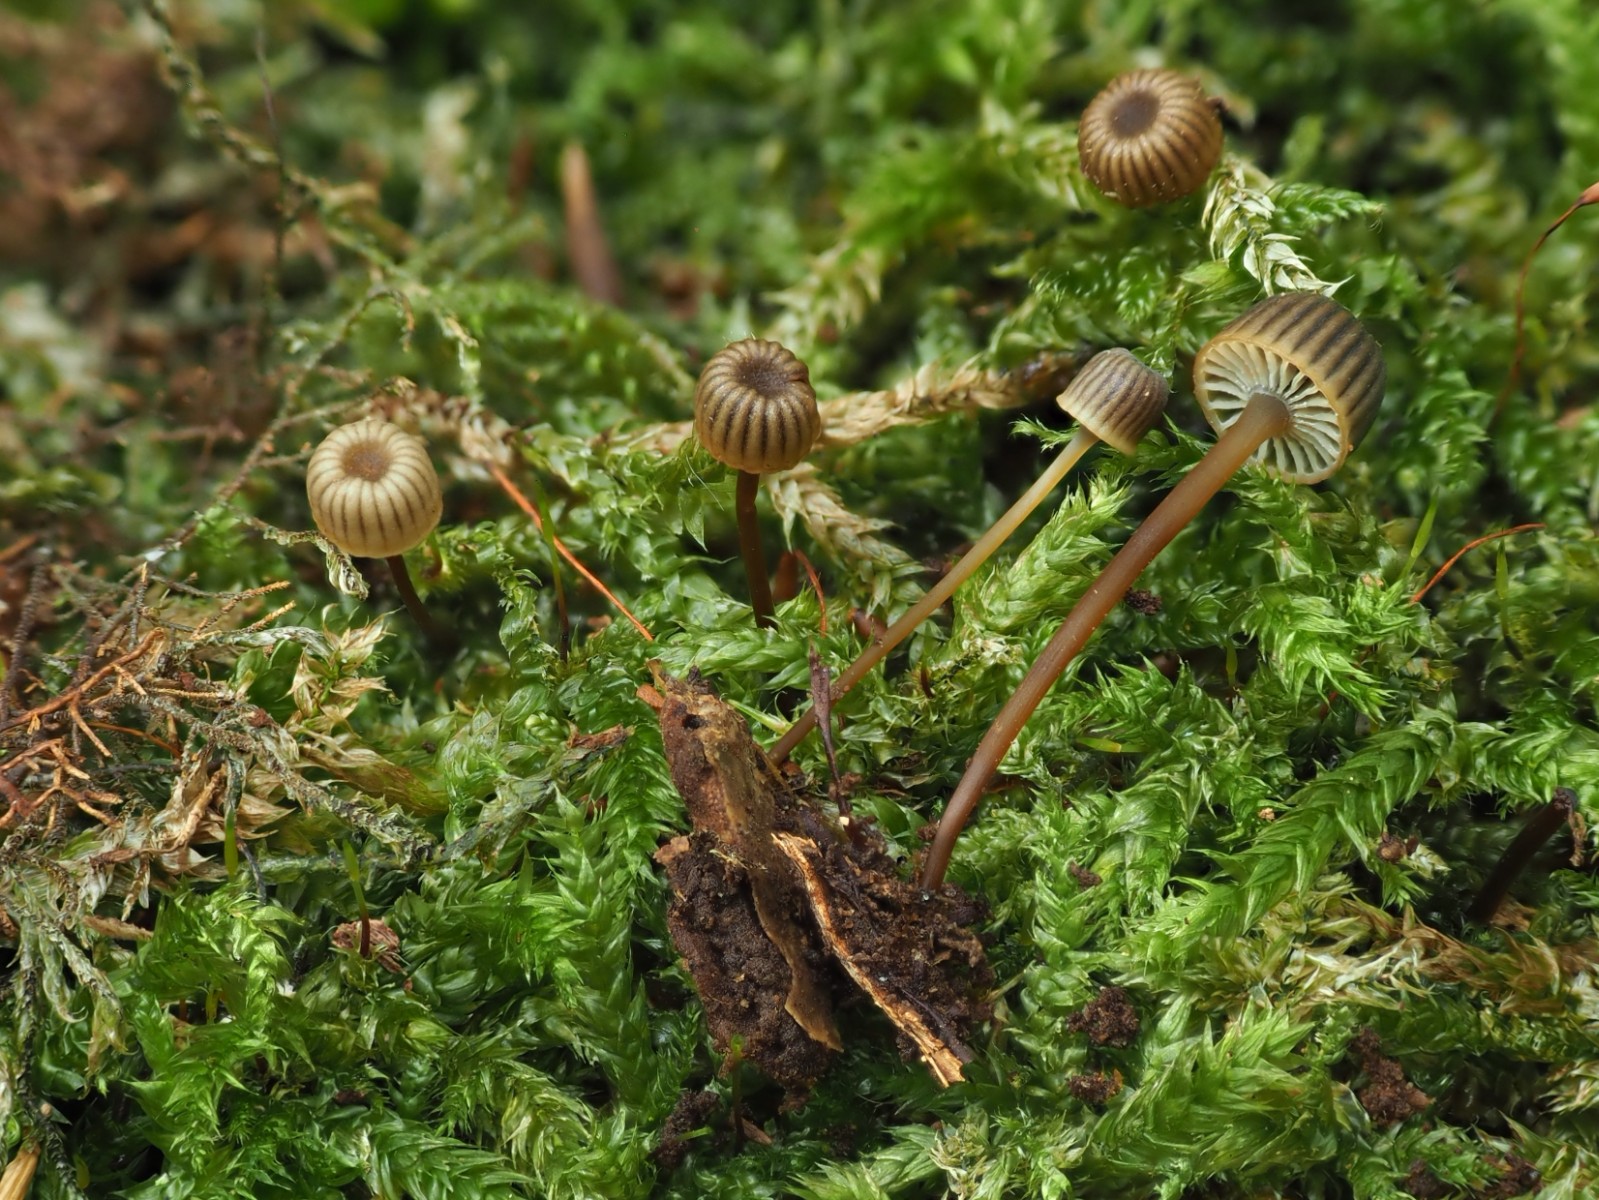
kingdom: Fungi
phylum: Basidiomycota
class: Agaricomycetes
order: Agaricales
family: Mycenaceae
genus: Mycena
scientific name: Mycena picta
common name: kantet huesvamp
